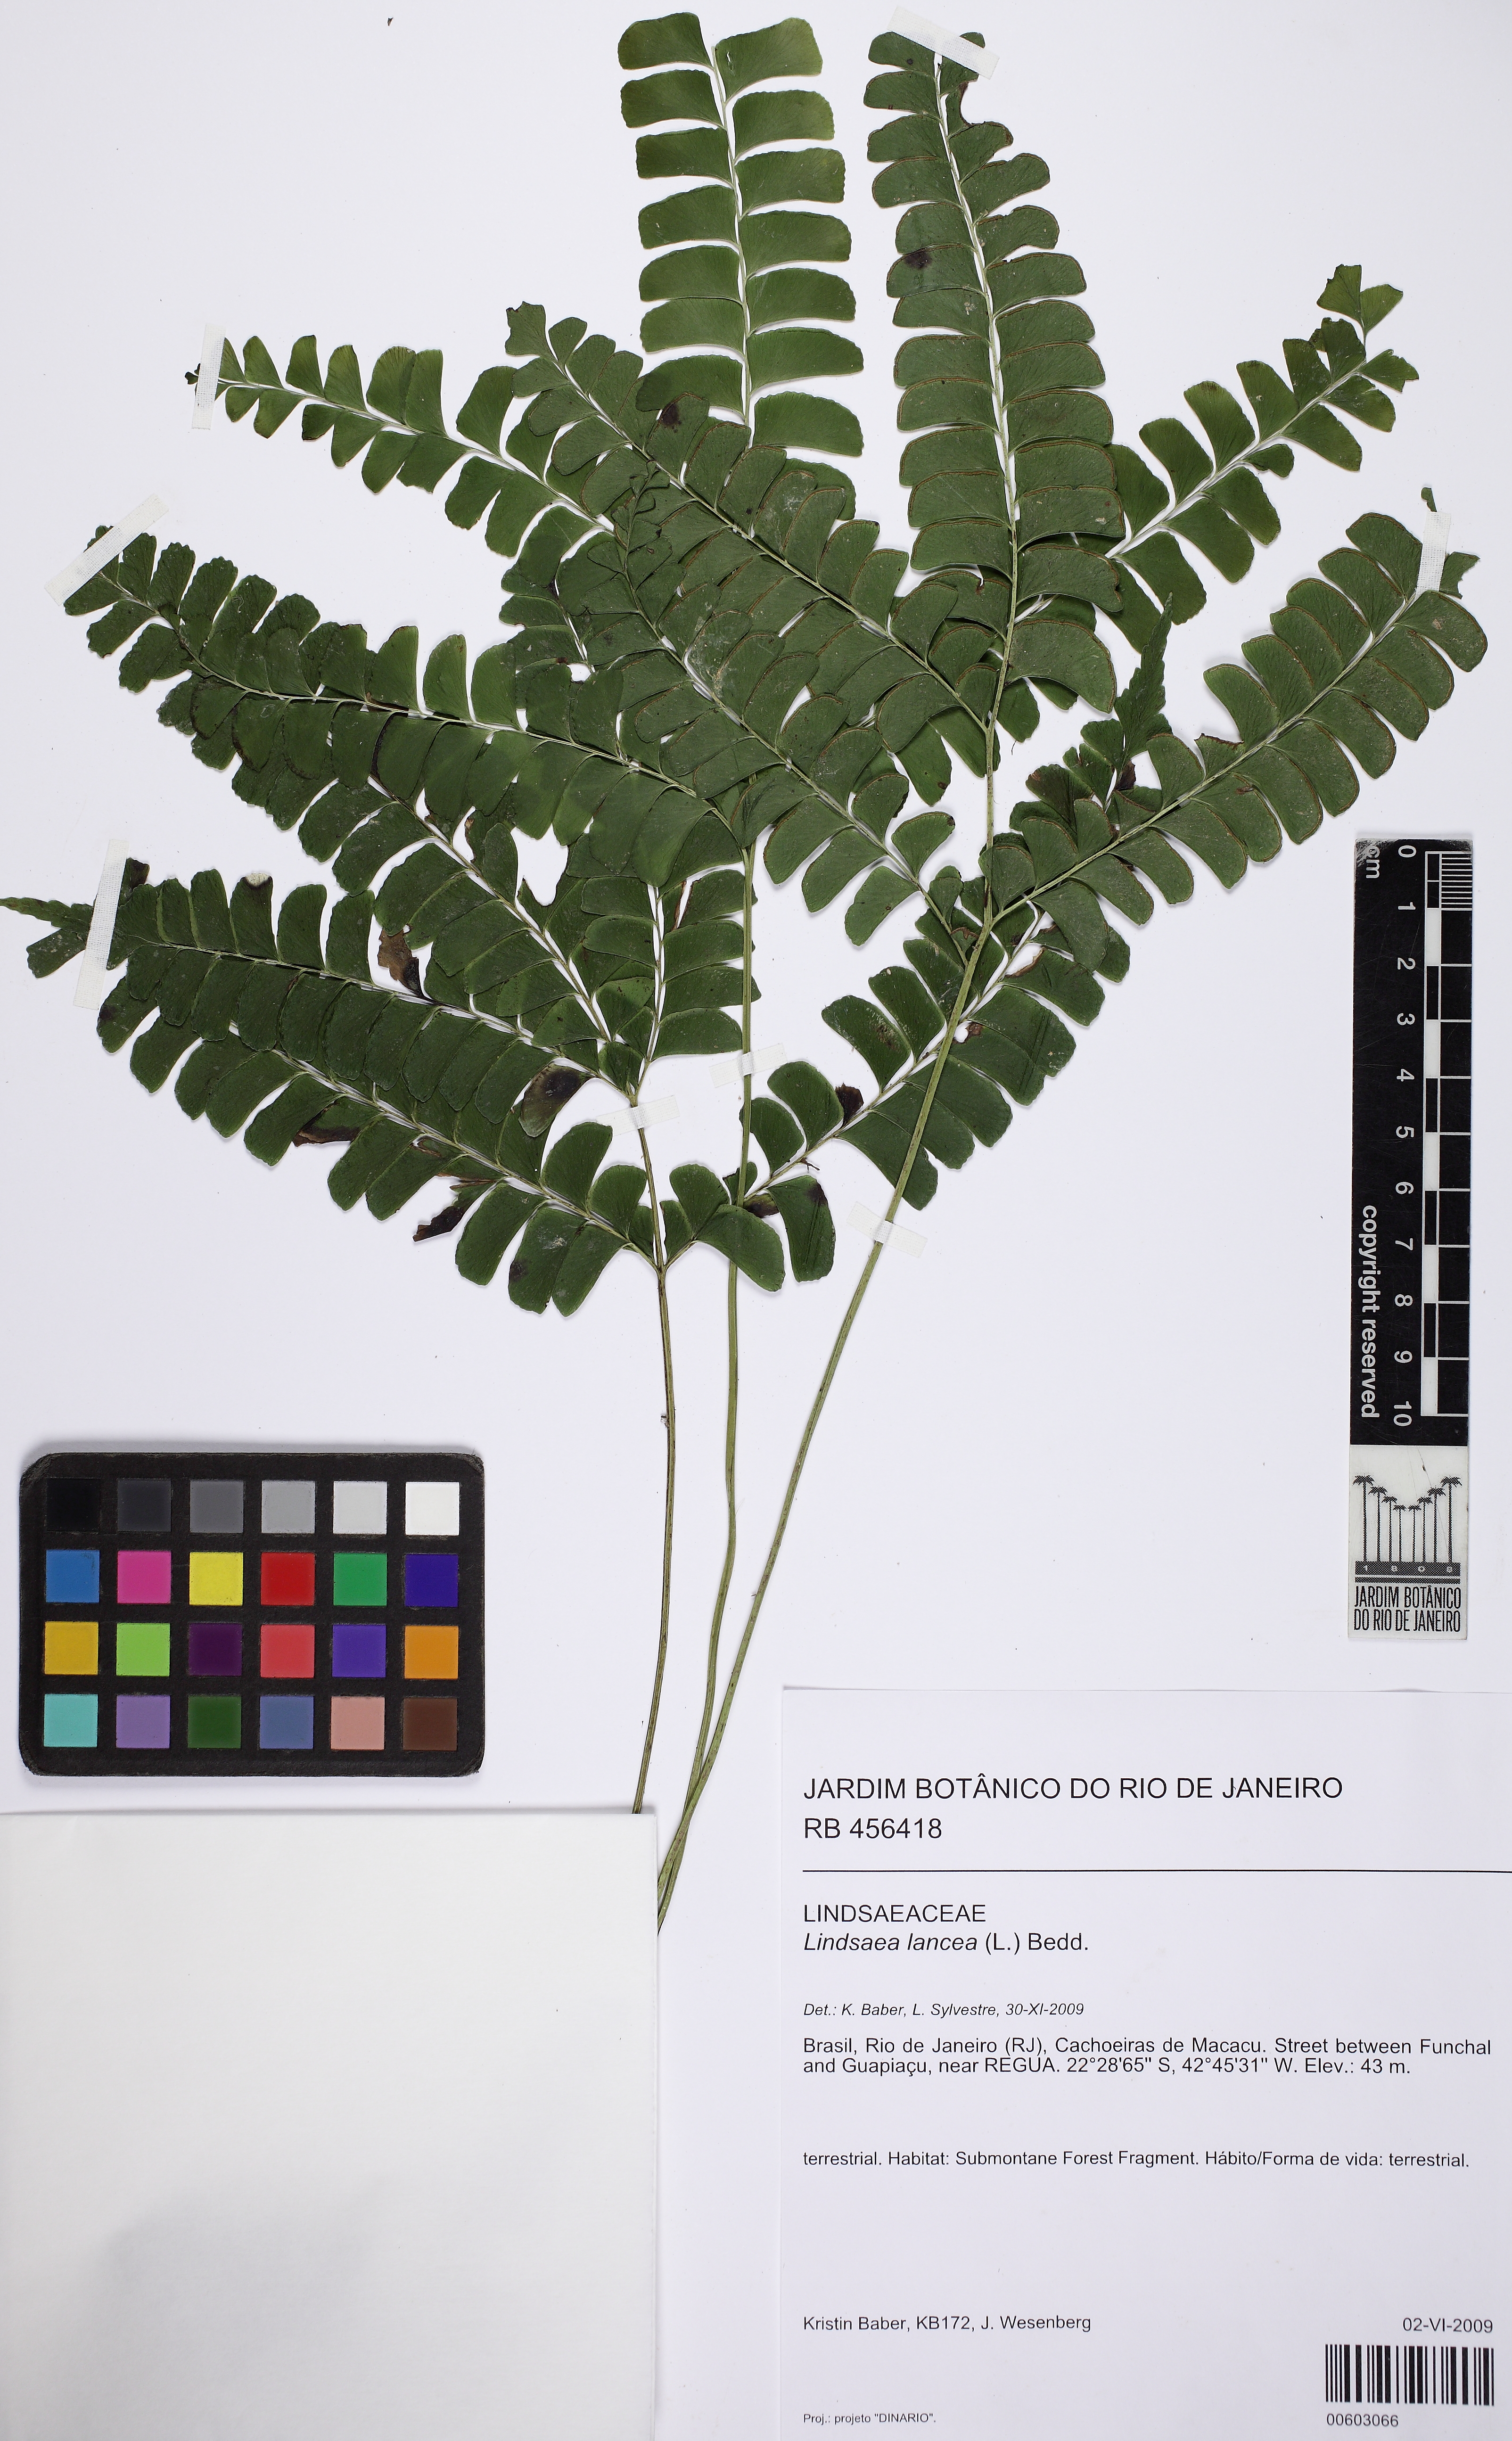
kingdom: Plantae
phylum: Tracheophyta
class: Polypodiopsida
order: Polypodiales
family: Lindsaeaceae
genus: Lindsaea
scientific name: Lindsaea lancea
